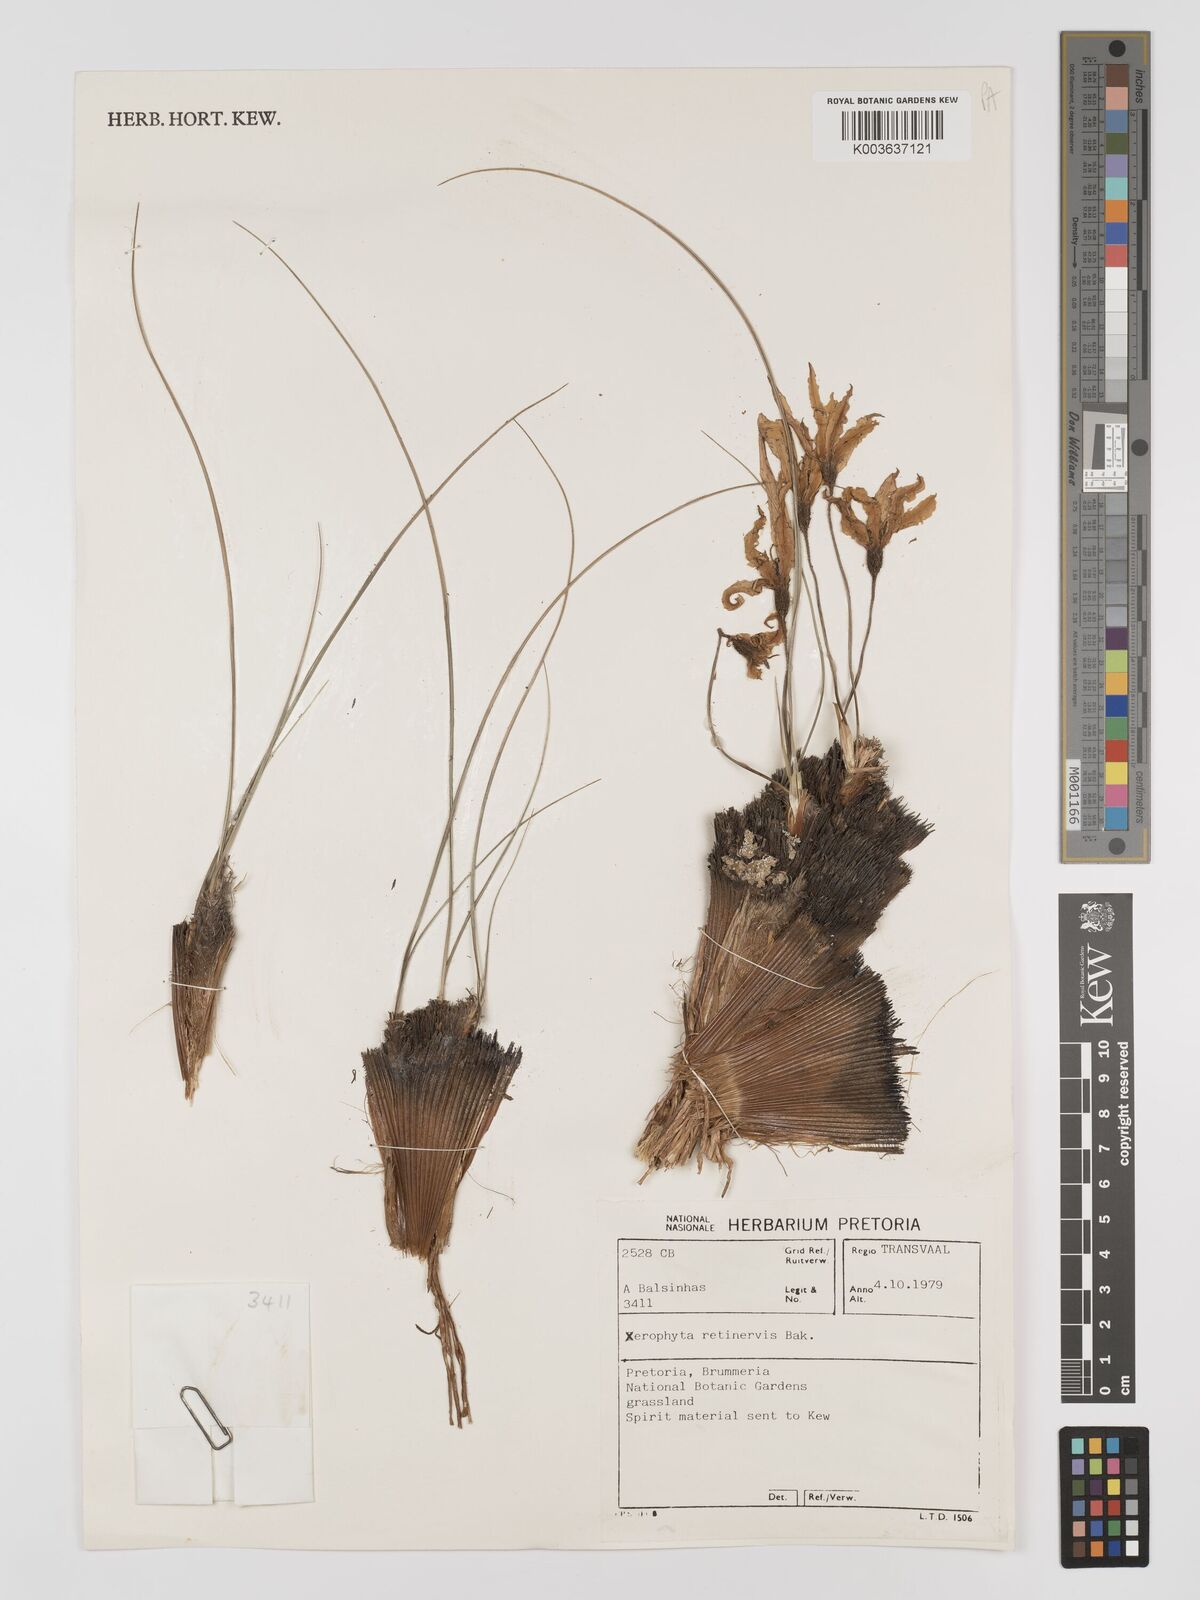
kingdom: Plantae
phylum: Tracheophyta
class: Liliopsida
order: Pandanales
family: Velloziaceae
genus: Xerophyta
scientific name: Xerophyta retinervis
